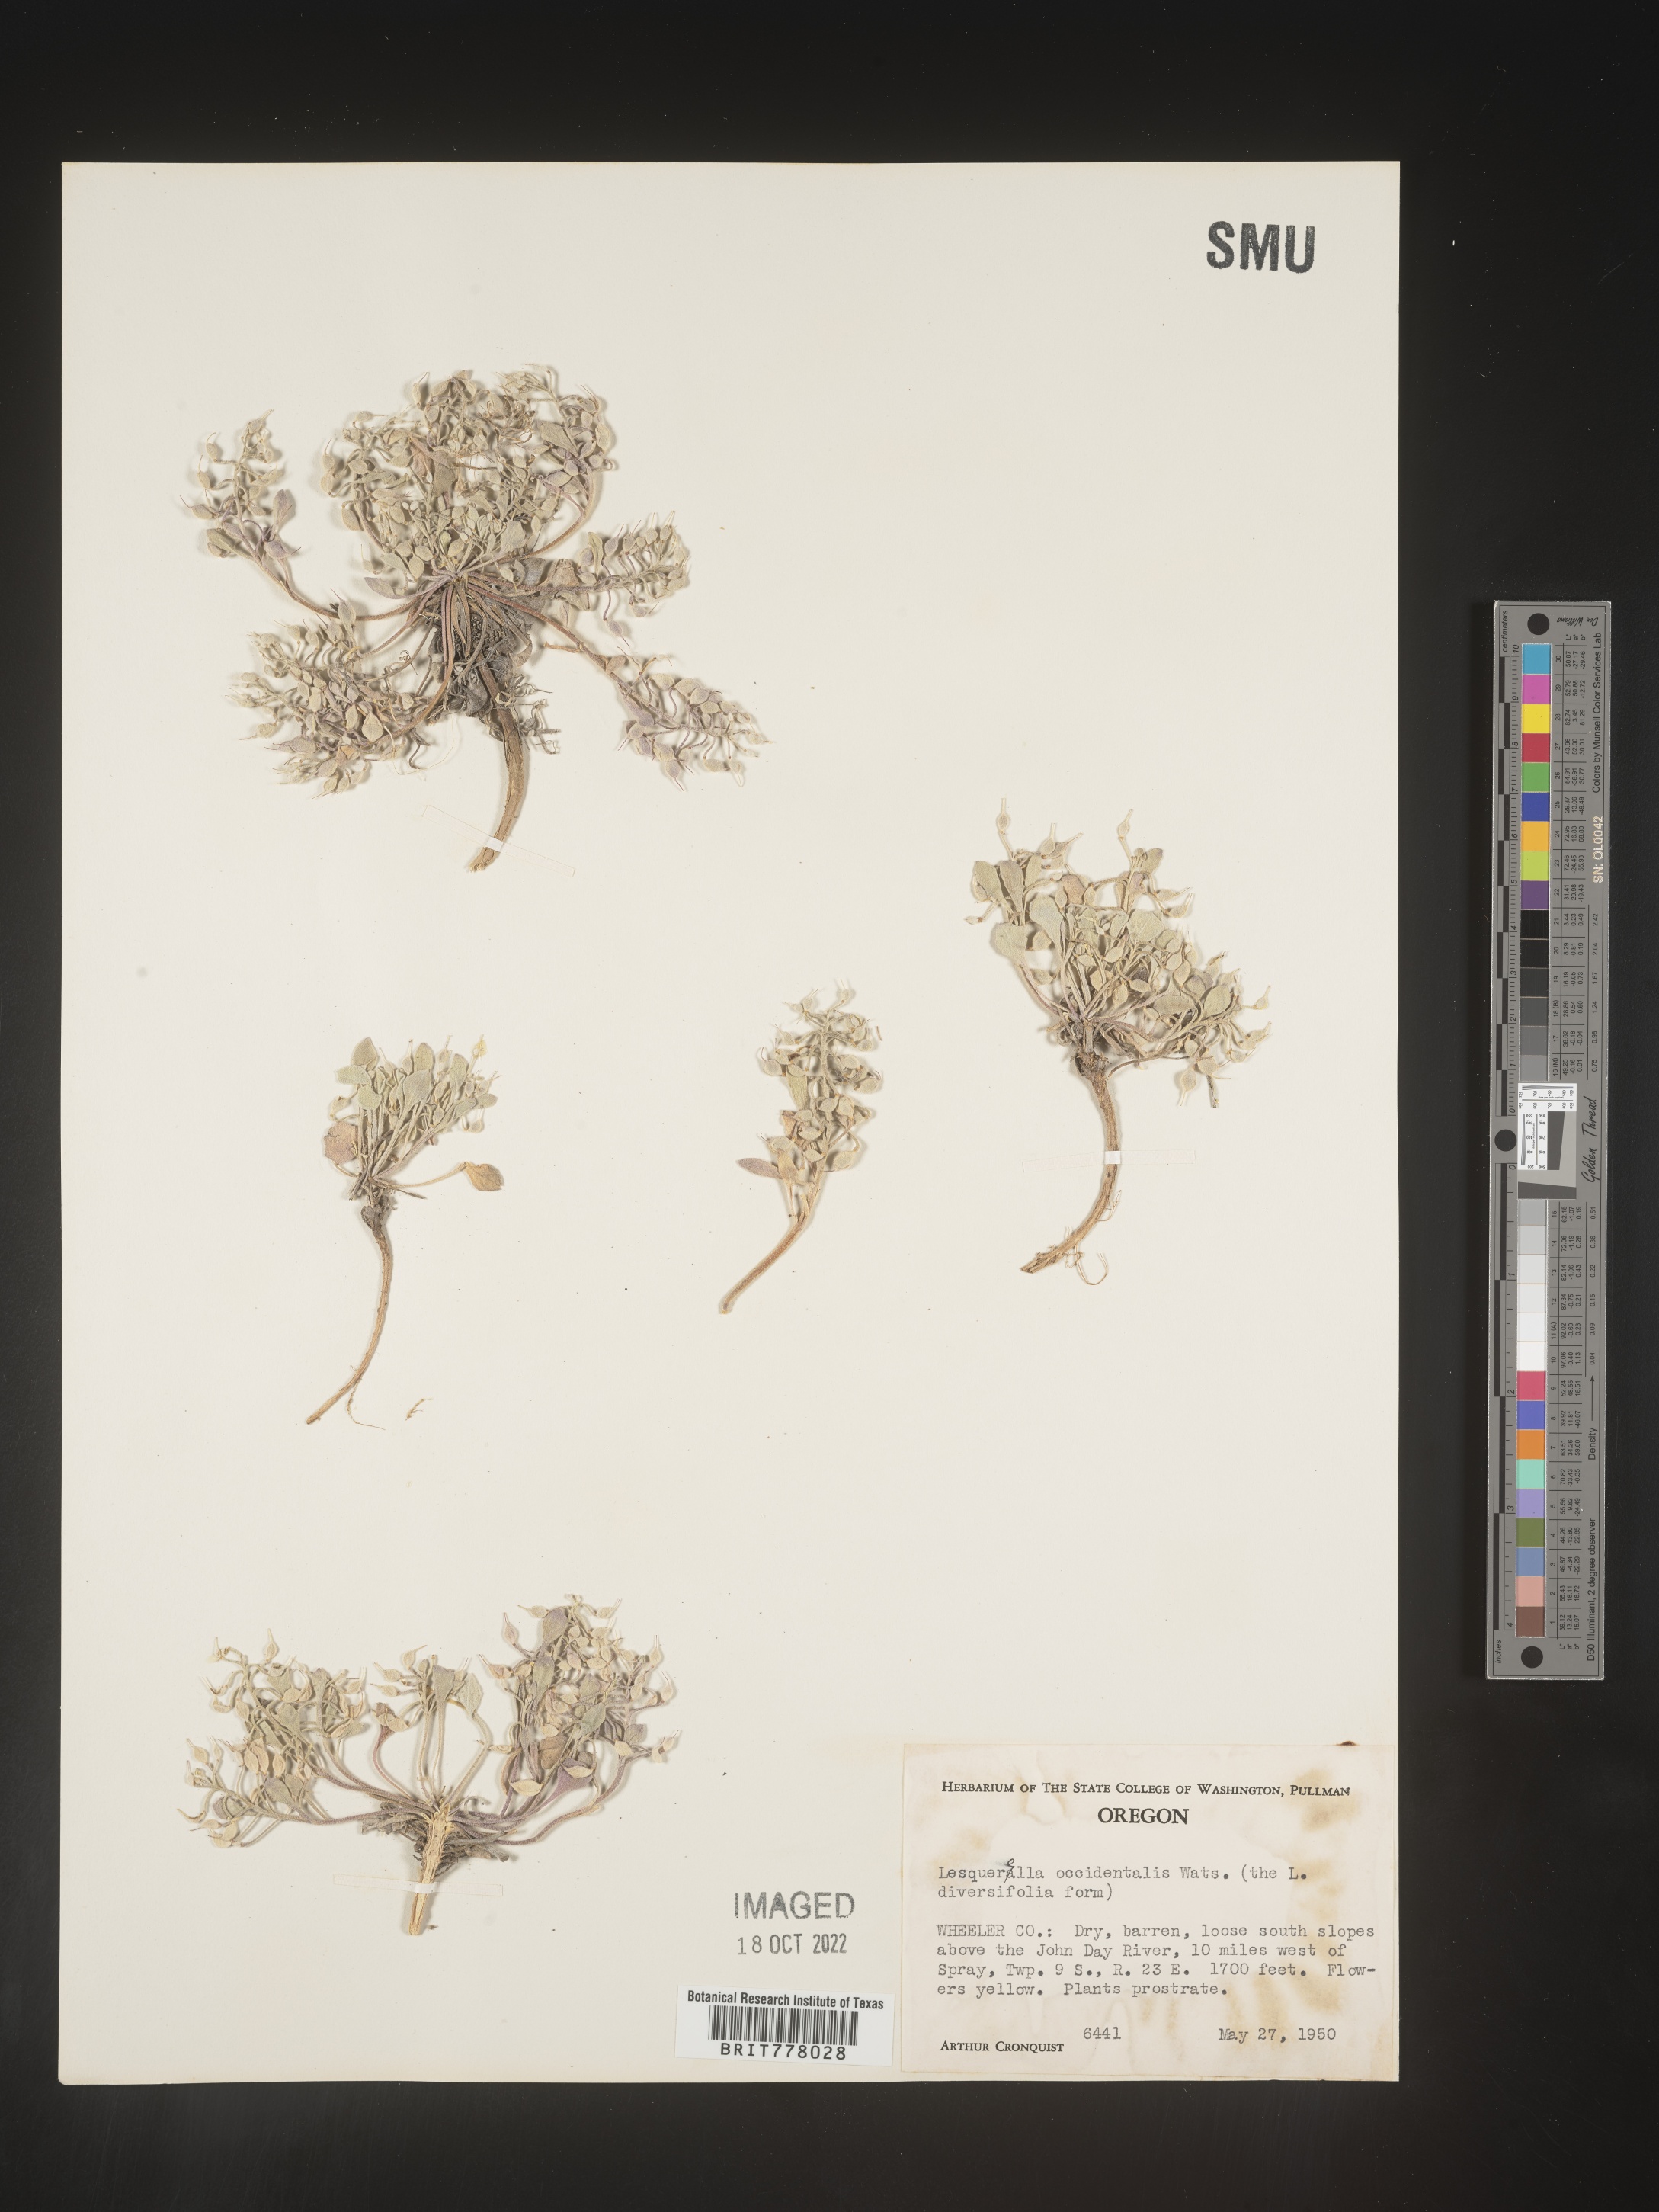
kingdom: Chromista
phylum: Cercozoa
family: Psammonobiotidae
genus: Lesquerella
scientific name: Lesquerella
